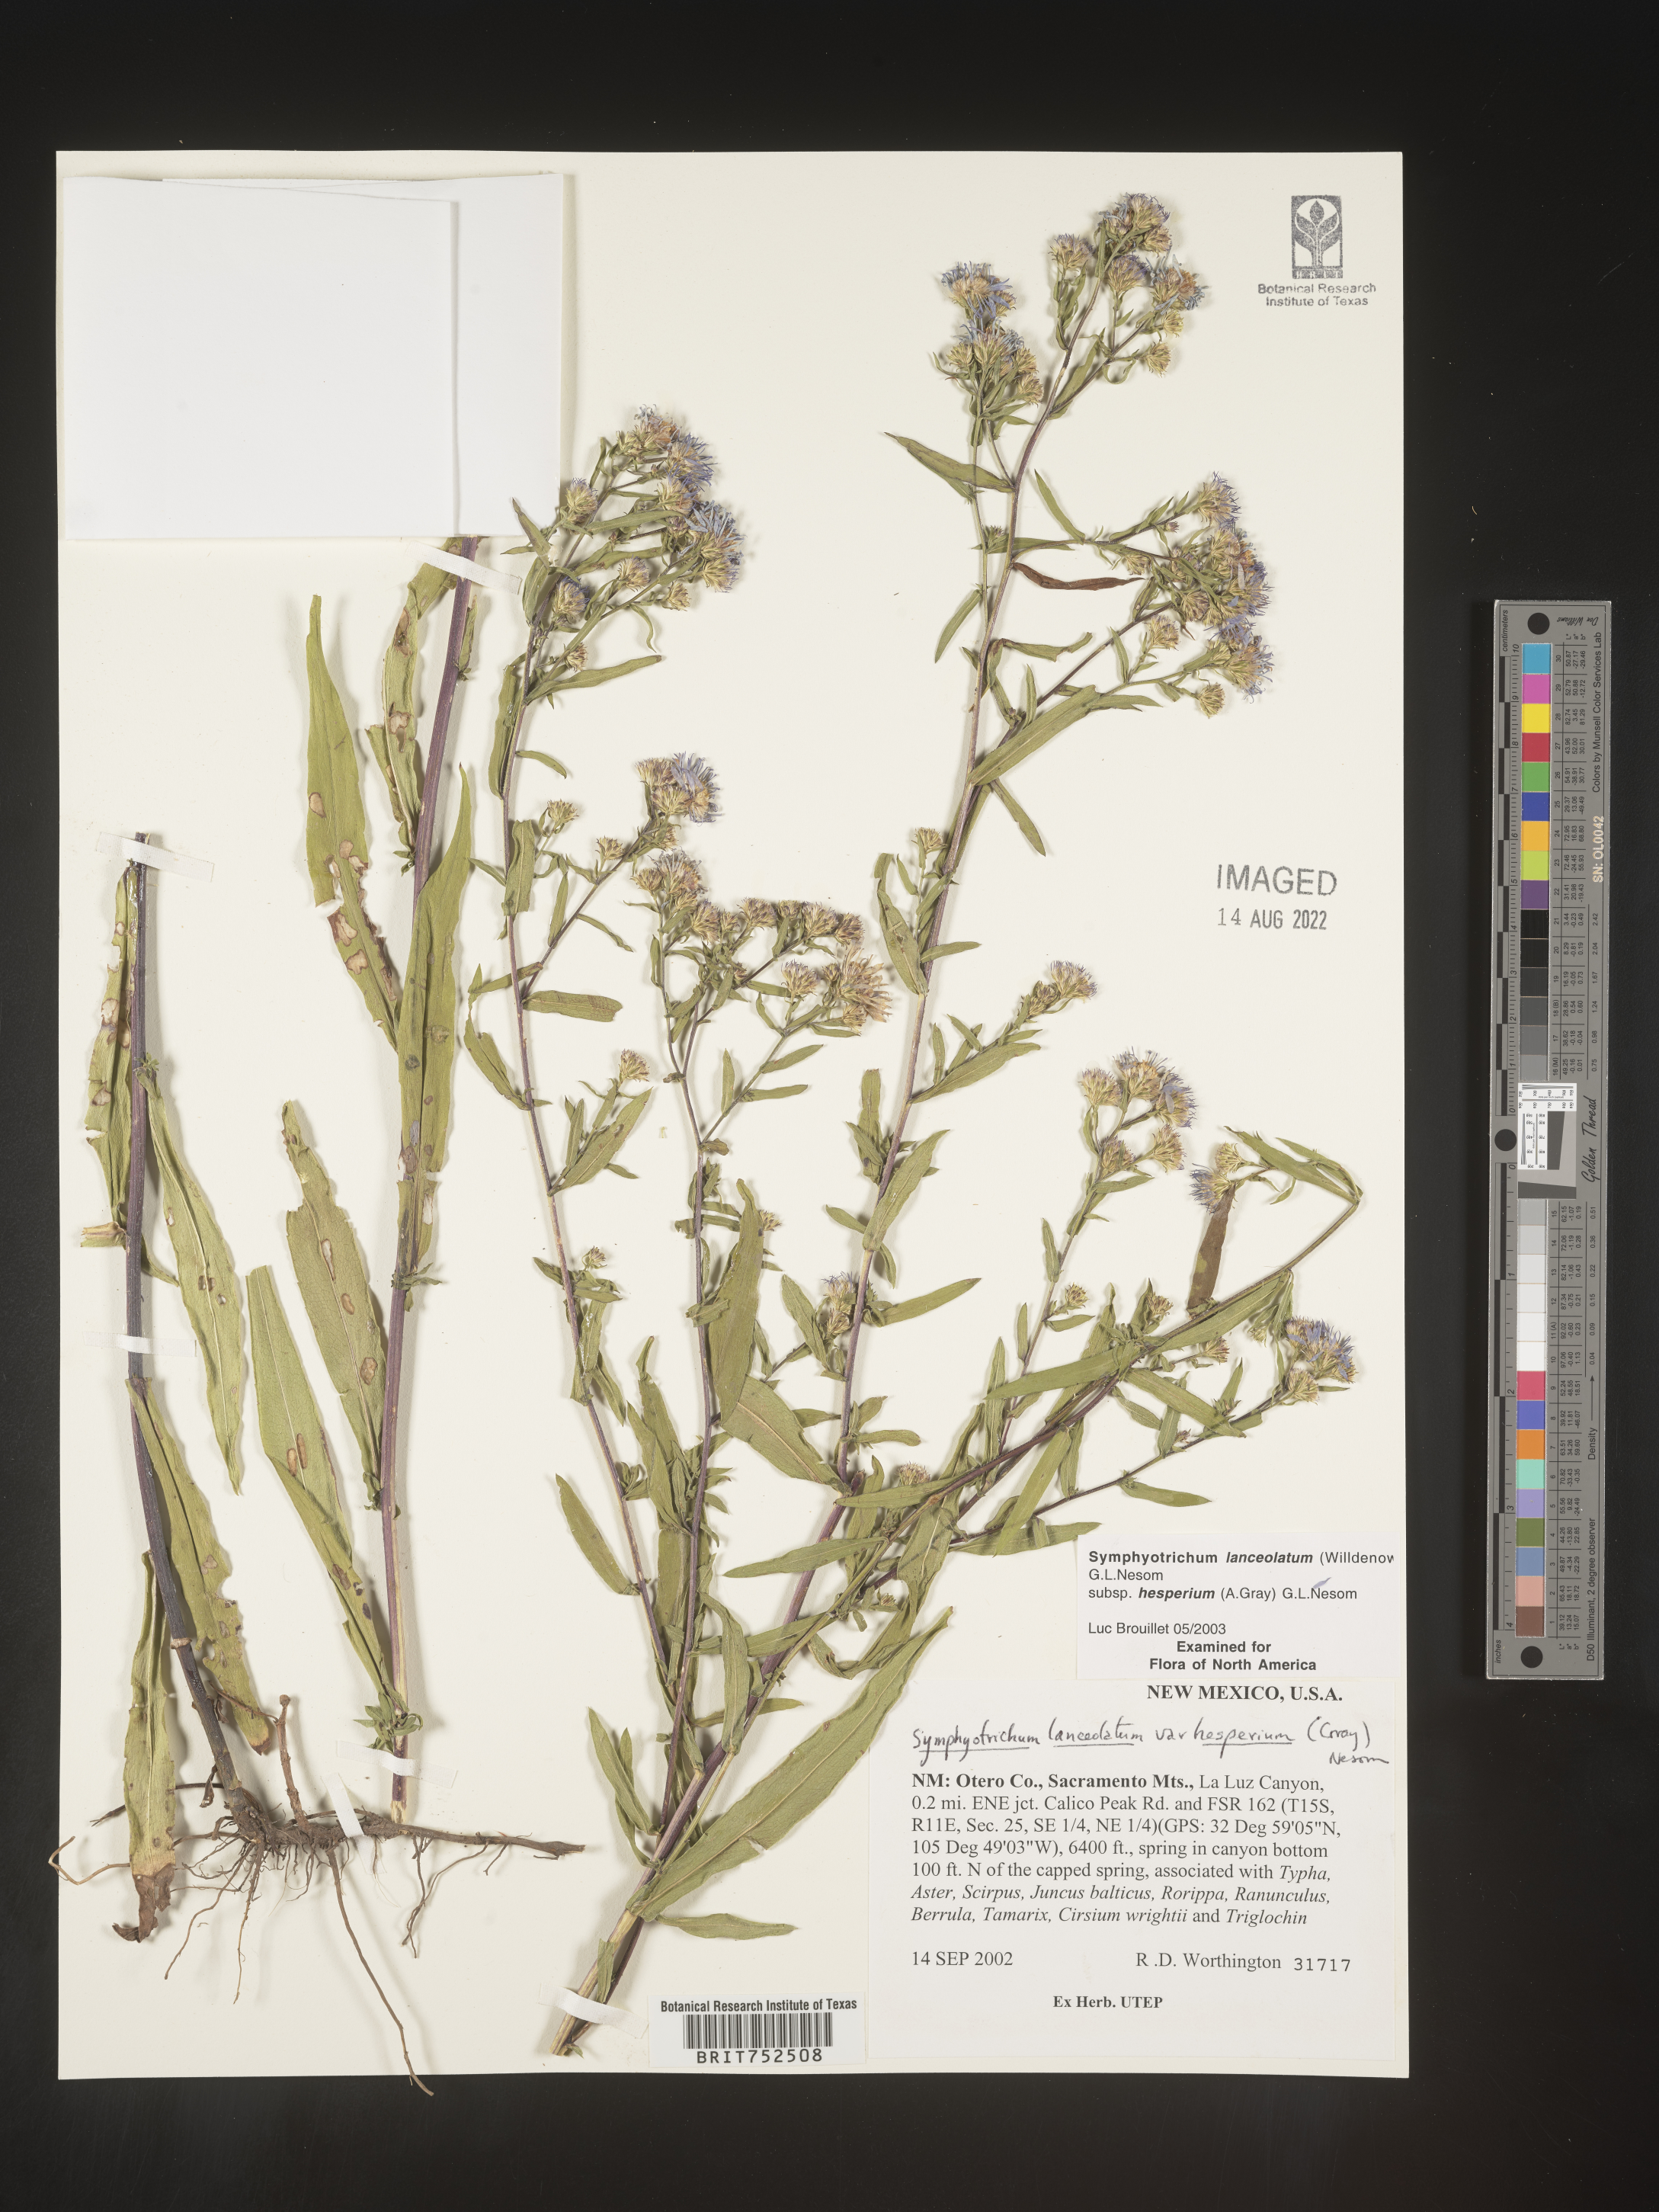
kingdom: Plantae
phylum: Tracheophyta
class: Magnoliopsida
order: Asterales
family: Asteraceae
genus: Symphyotrichum
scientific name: Symphyotrichum lanceolatum
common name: Panicled aster
